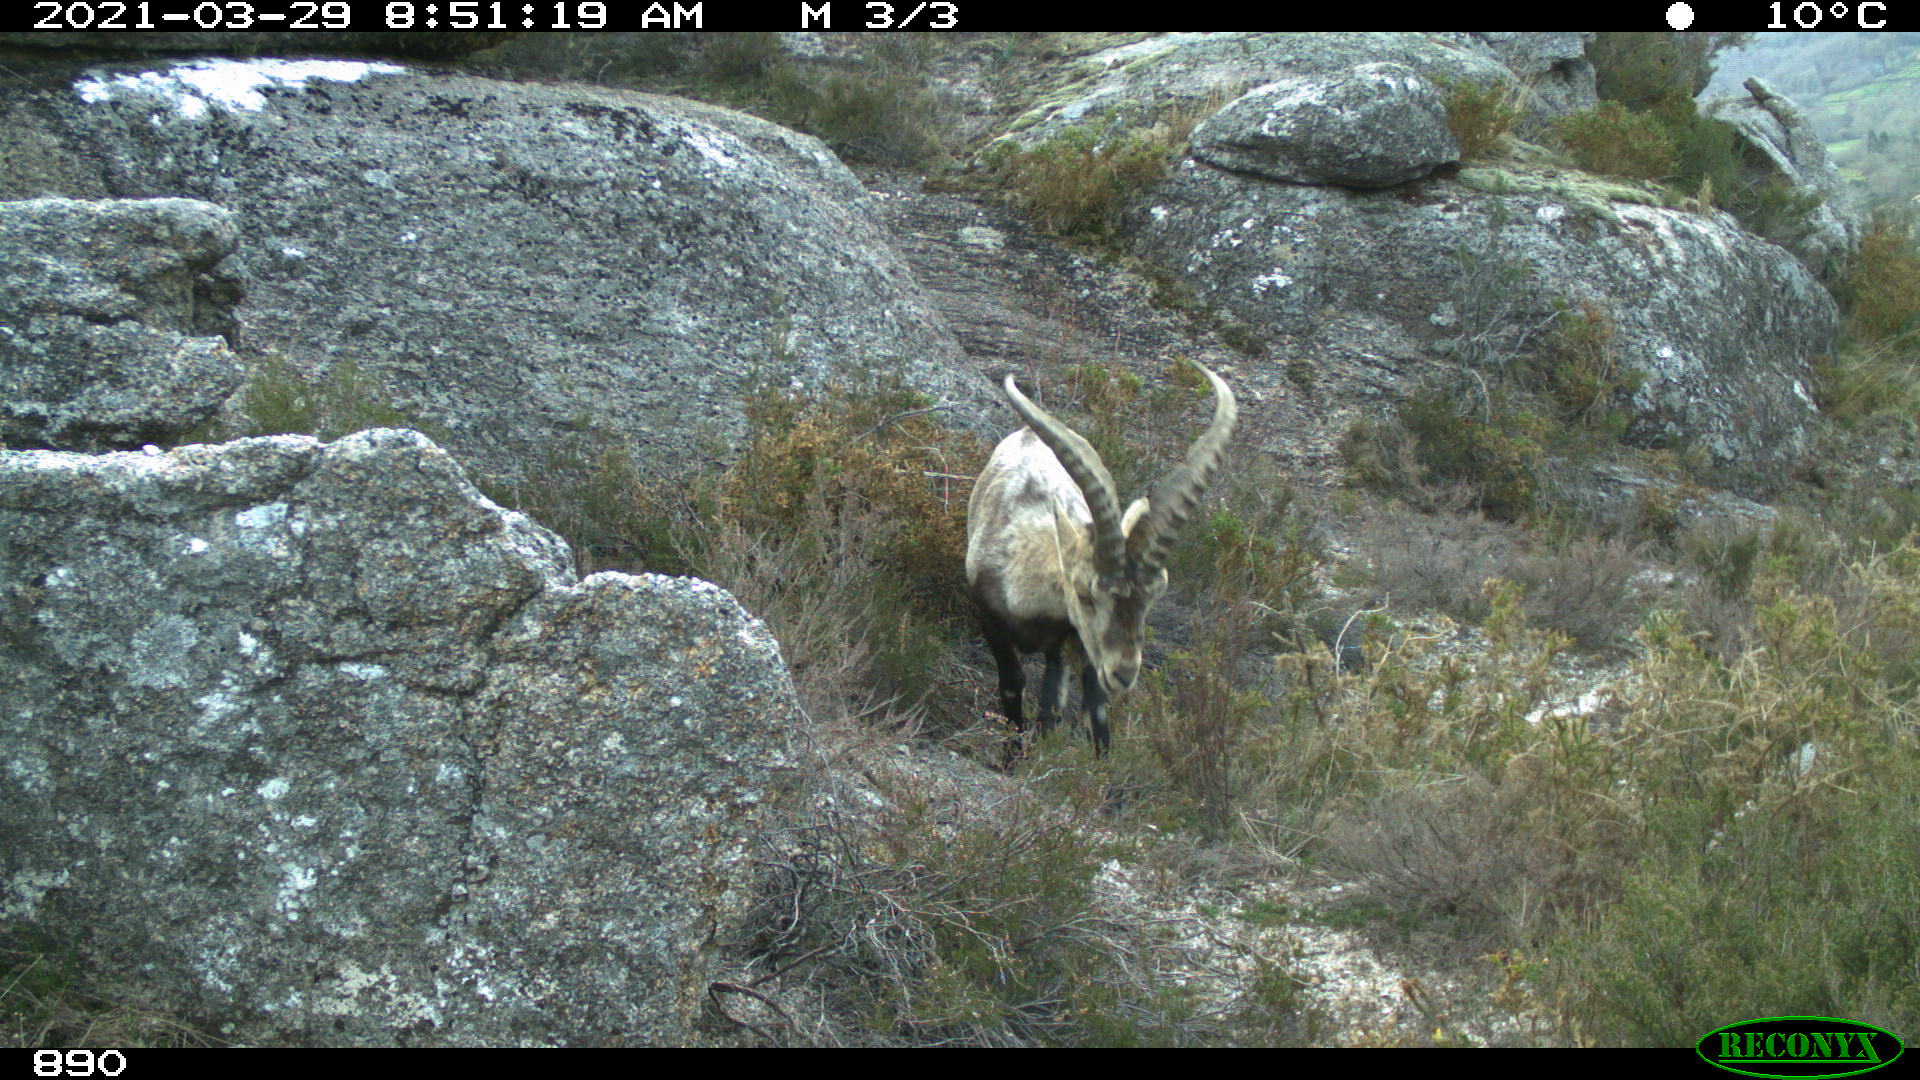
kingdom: Animalia
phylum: Chordata
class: Mammalia
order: Artiodactyla
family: Bovidae
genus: Capra
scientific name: Capra pyrenaica
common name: Spanish ibex
